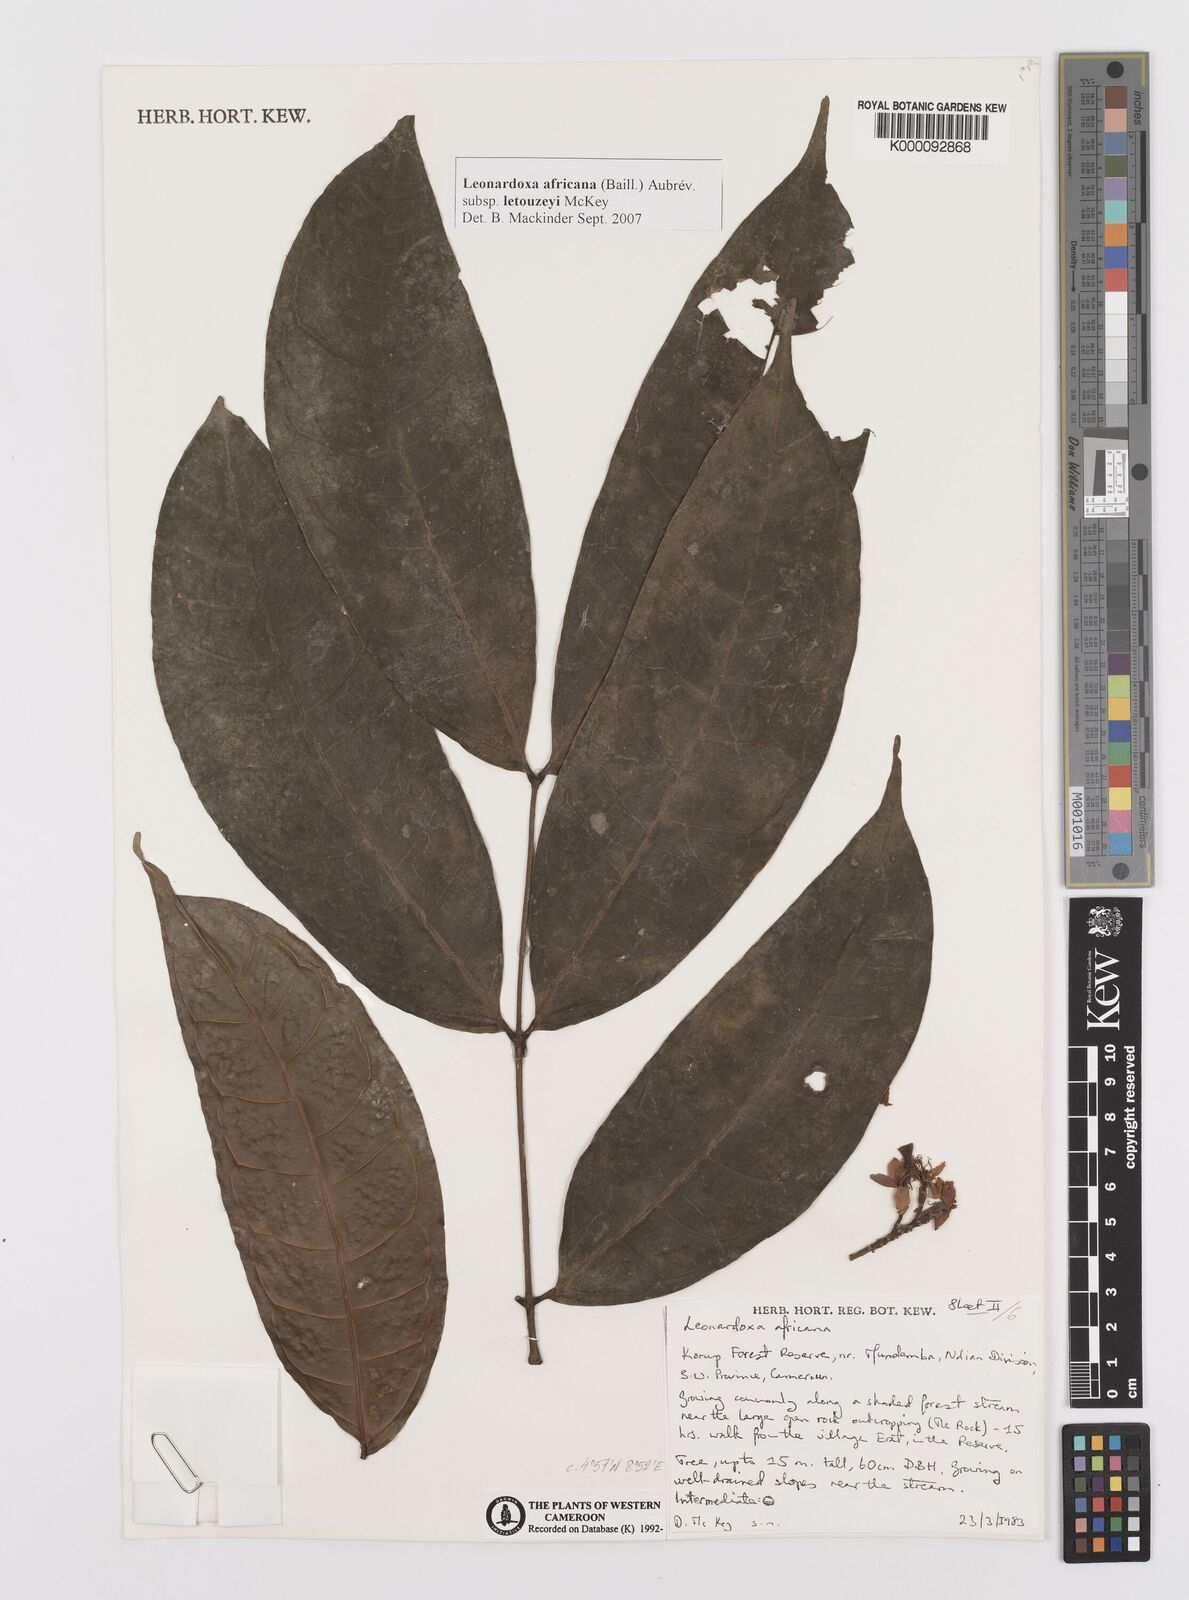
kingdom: Plantae
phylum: Tracheophyta
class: Magnoliopsida
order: Fabales
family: Fabaceae
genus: Leonardoxa
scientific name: Leonardoxa
